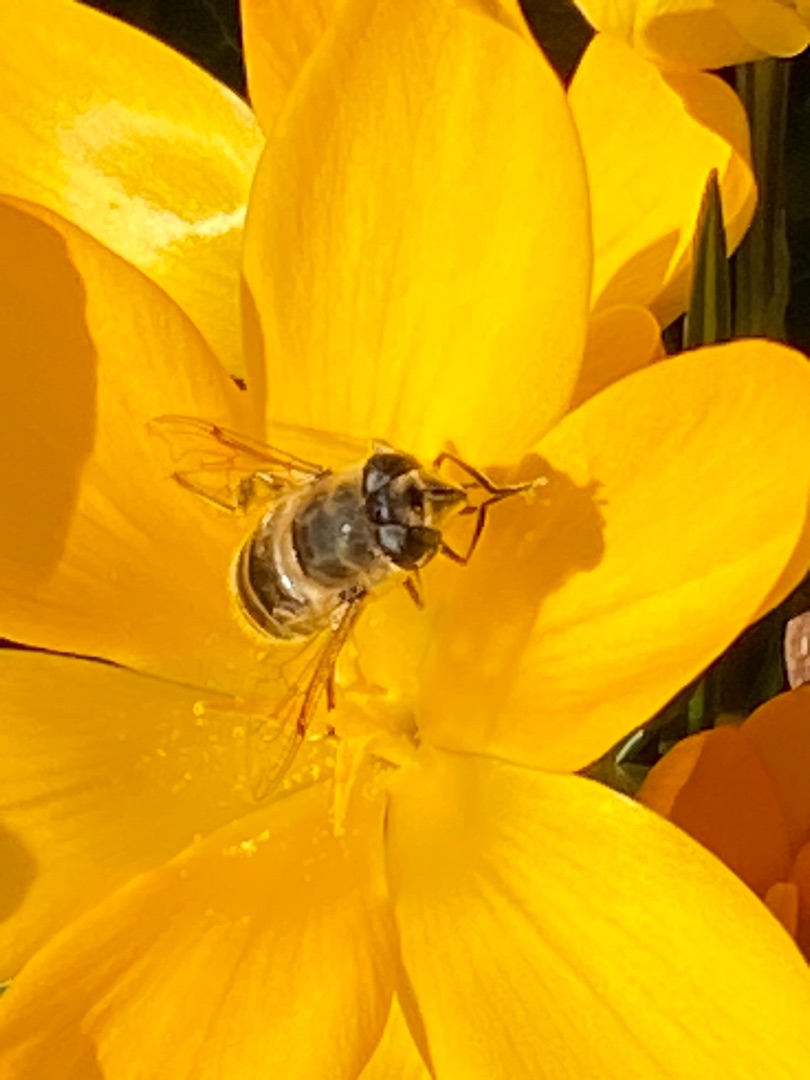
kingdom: Animalia
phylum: Arthropoda
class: Insecta
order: Diptera
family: Syrphidae
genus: Eristalis
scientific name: Eristalis tenax
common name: Droneflue
